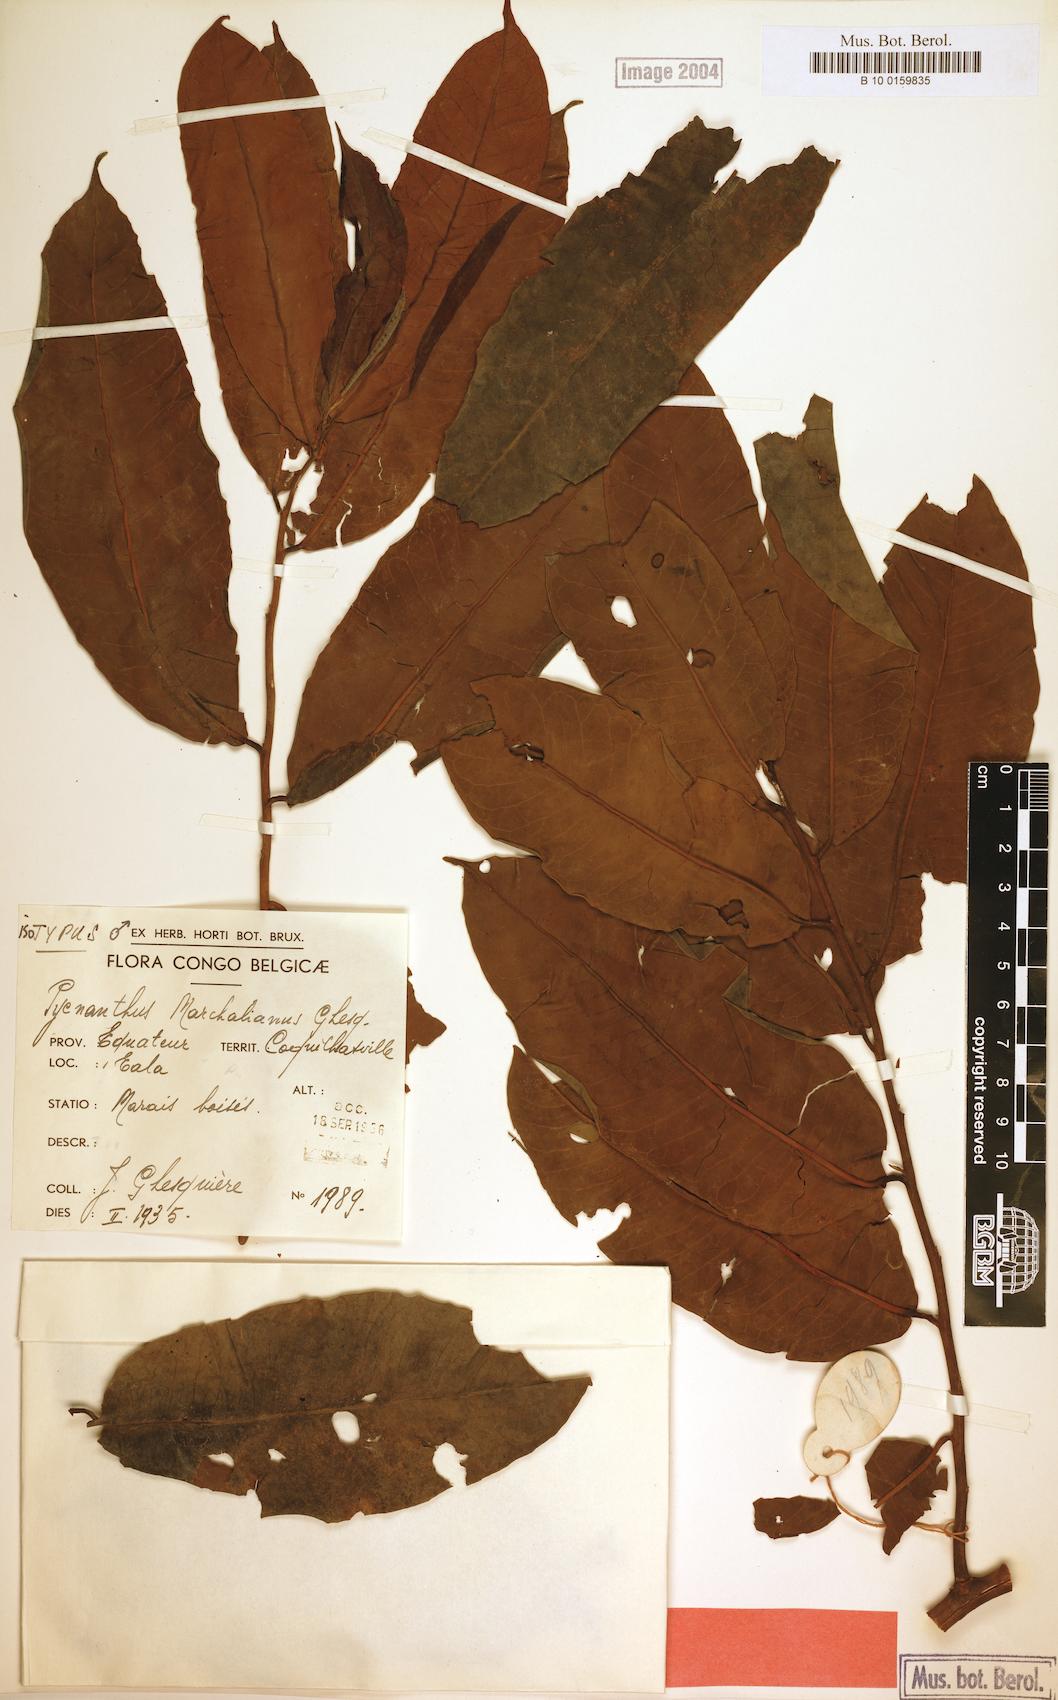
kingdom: Plantae
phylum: Tracheophyta
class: Magnoliopsida
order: Magnoliales
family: Myristicaceae
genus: Pycnanthus
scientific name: Pycnanthus marchalianus
